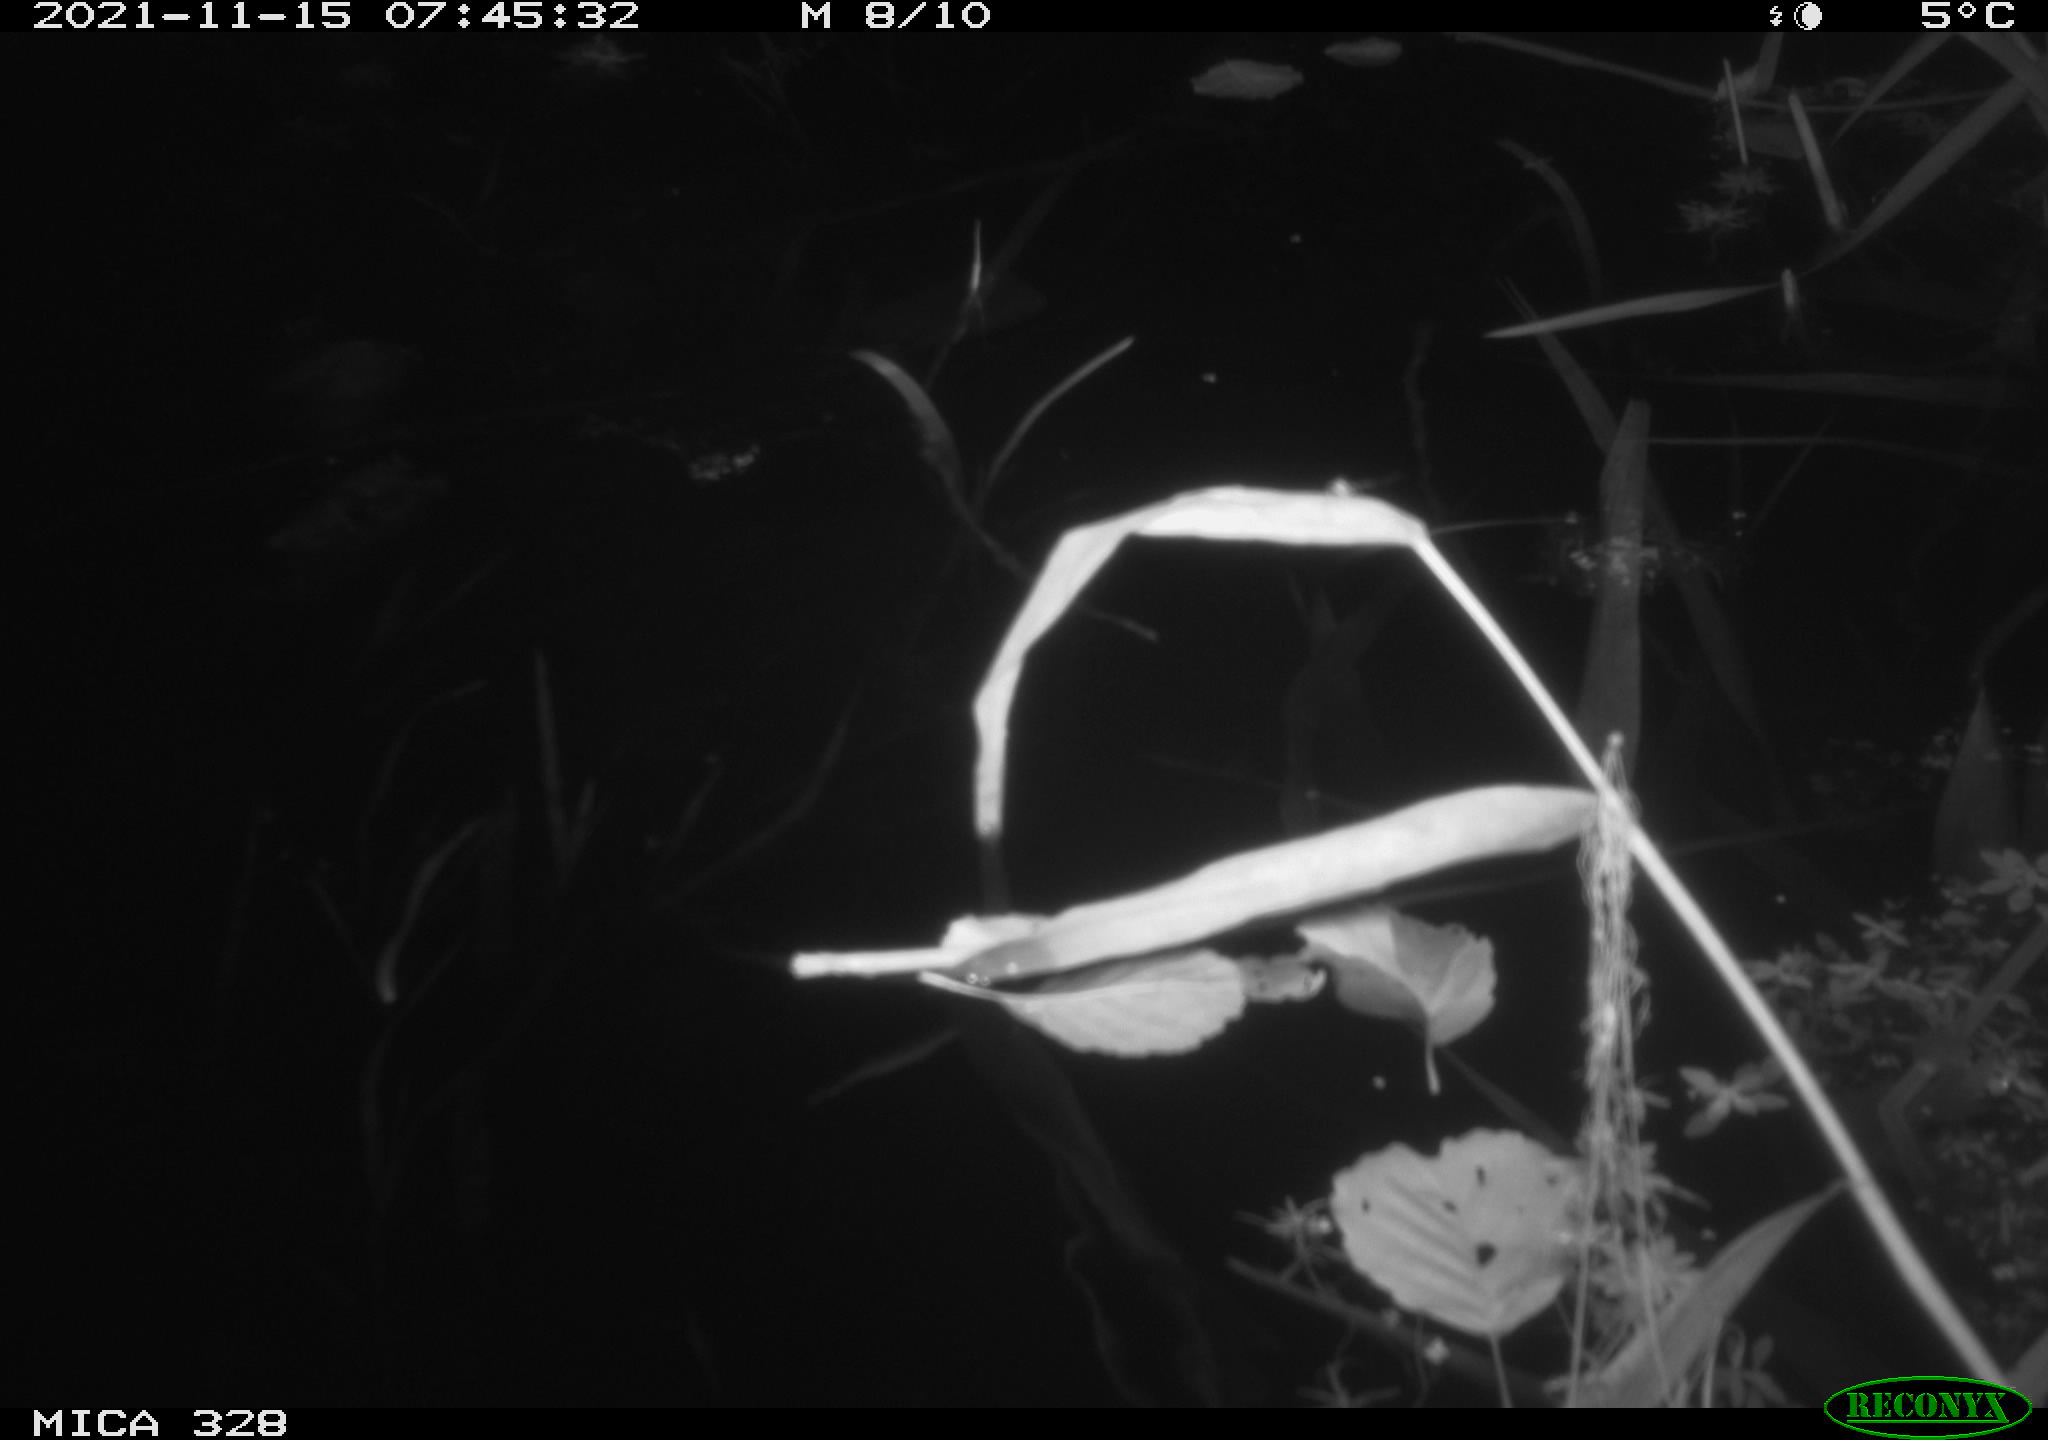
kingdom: Animalia
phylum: Chordata
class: Aves
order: Anseriformes
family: Anatidae
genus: Anas
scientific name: Anas platyrhynchos
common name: Mallard
